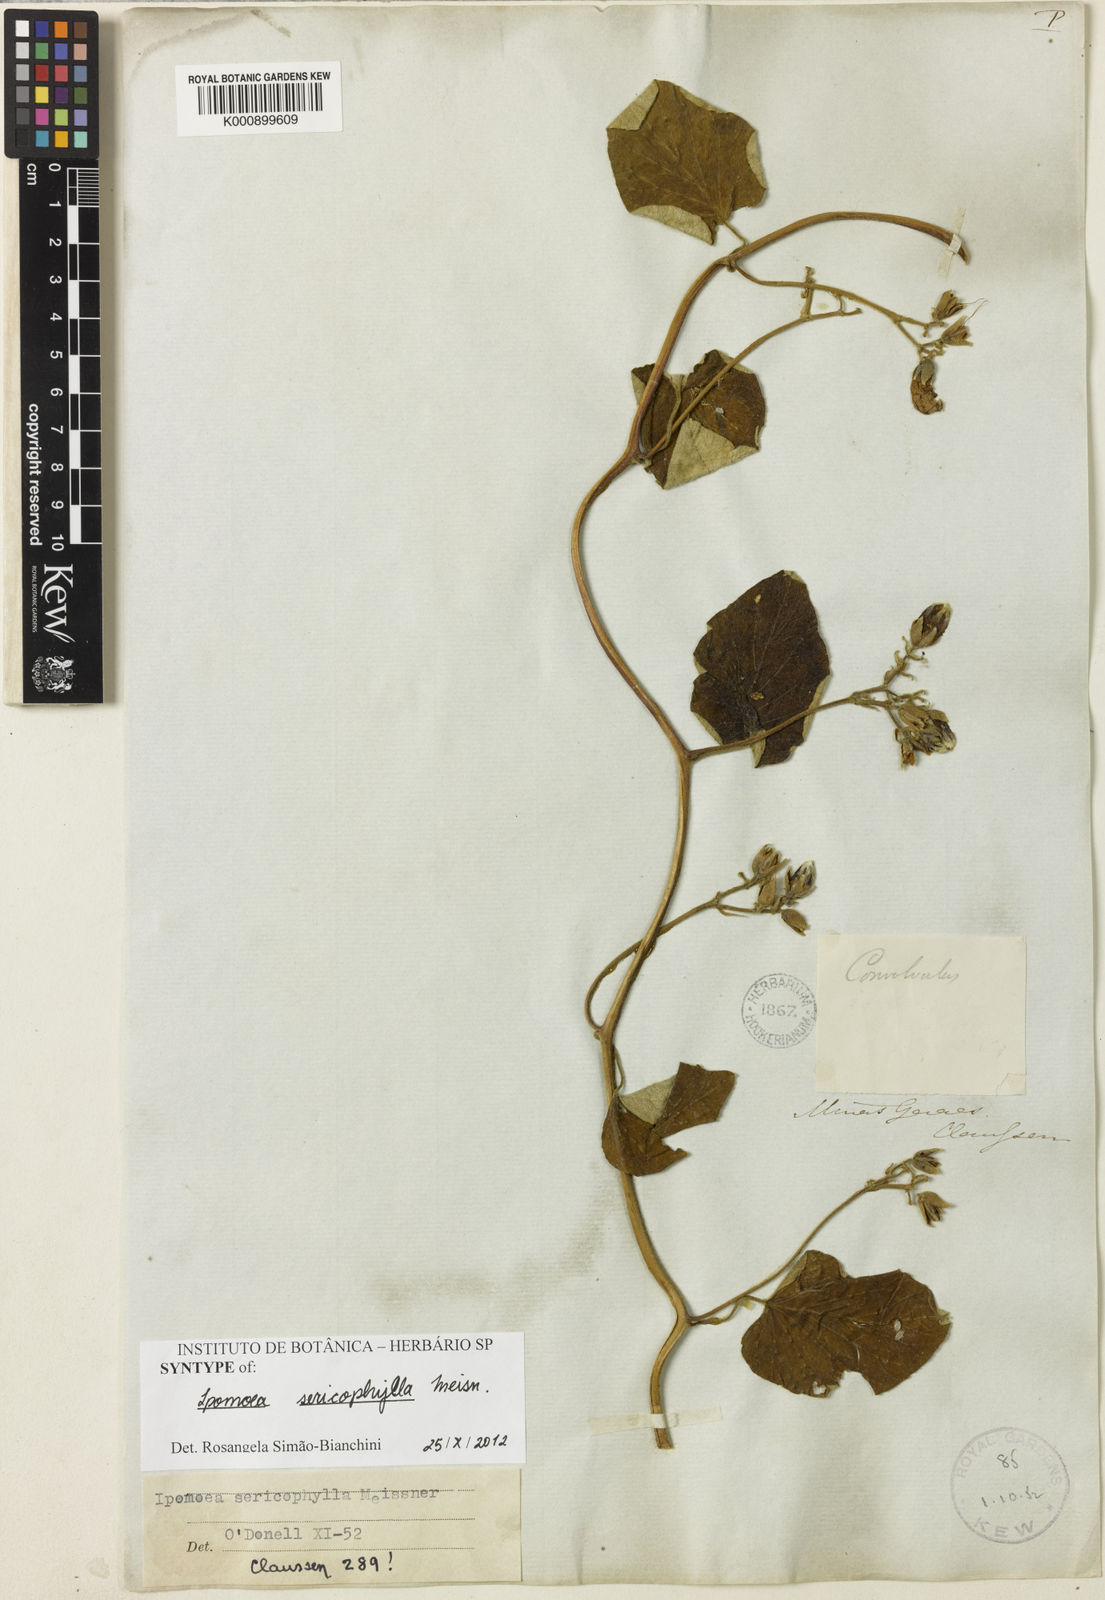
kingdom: Plantae
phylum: Tracheophyta
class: Magnoliopsida
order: Solanales
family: Convolvulaceae
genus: Ipomoea
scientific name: Ipomoea sericophylla
